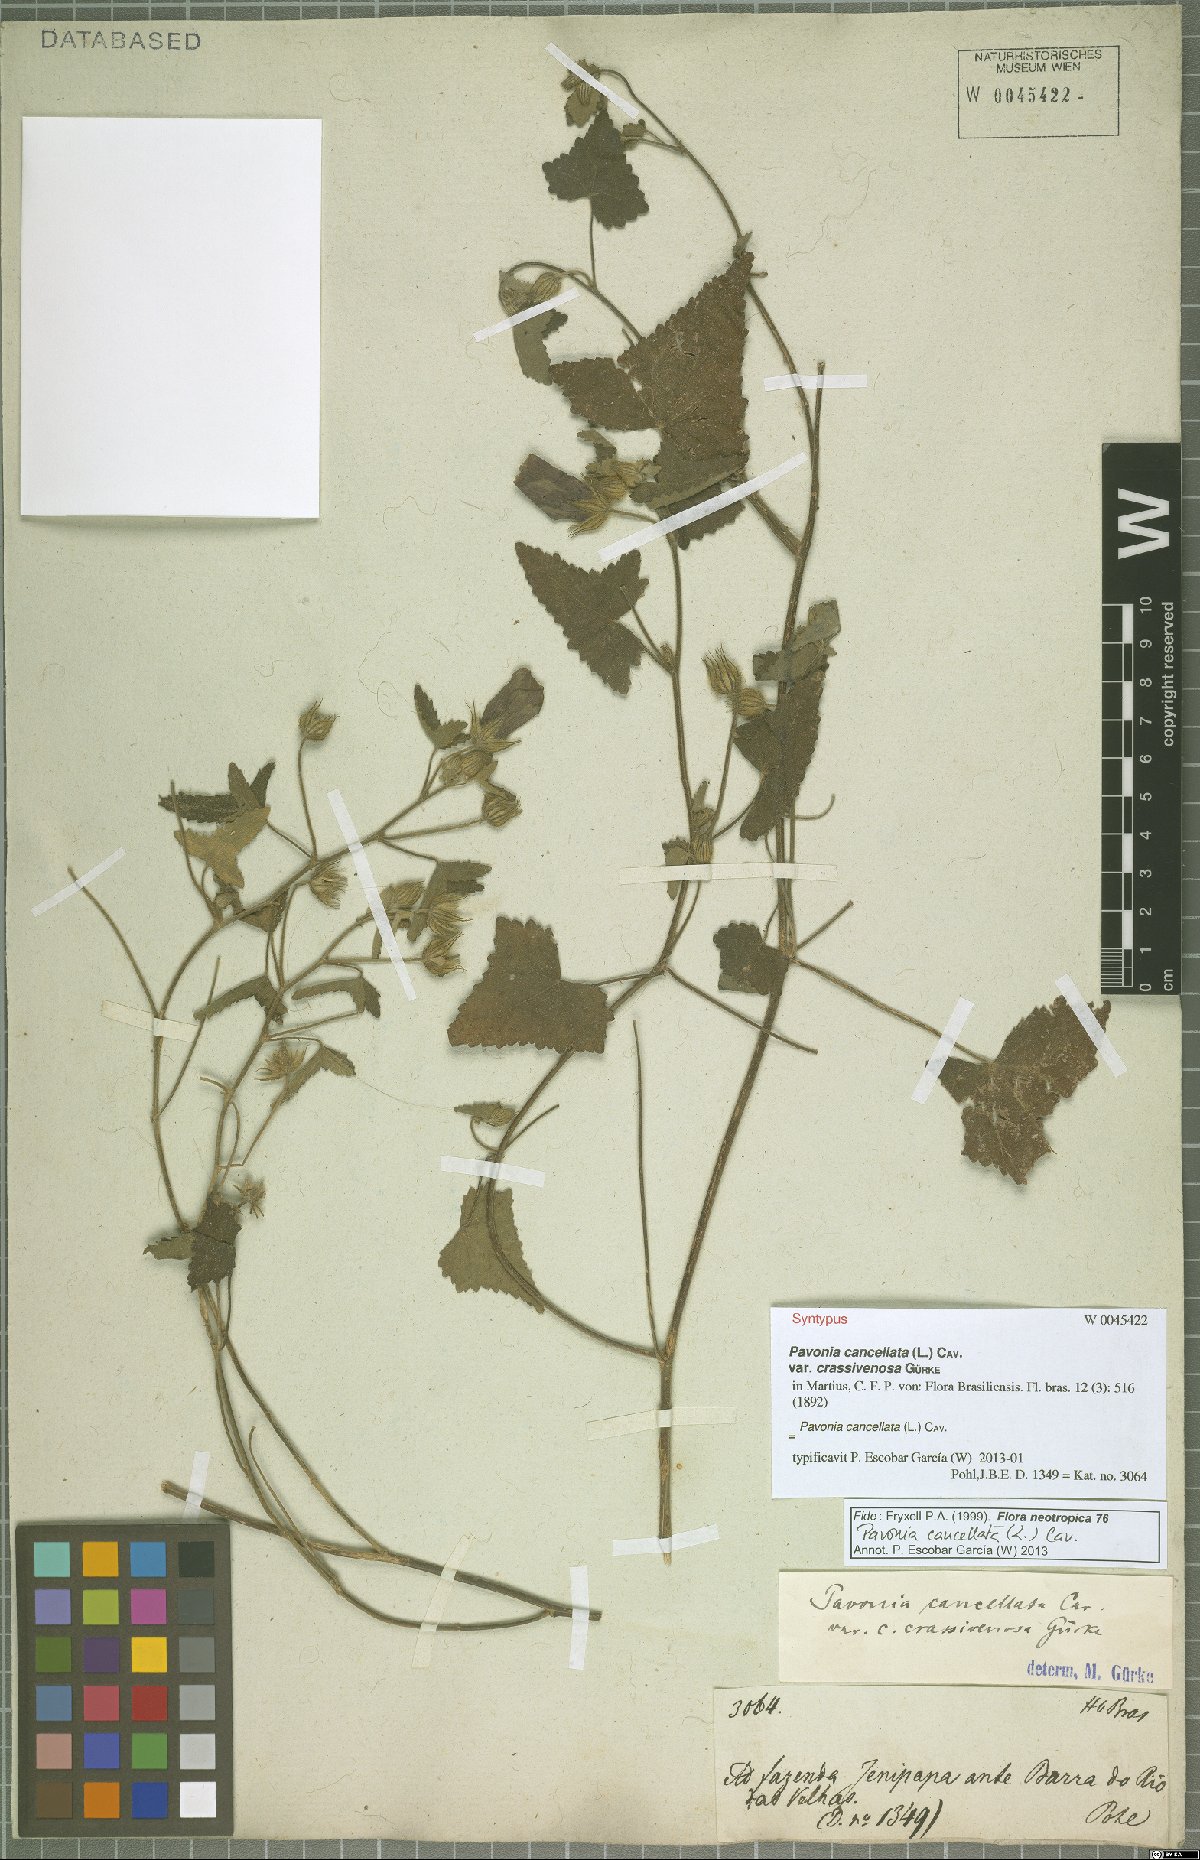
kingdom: Plantae
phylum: Tracheophyta
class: Magnoliopsida
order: Malvales
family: Malvaceae
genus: Pavonia
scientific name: Pavonia cancellata
